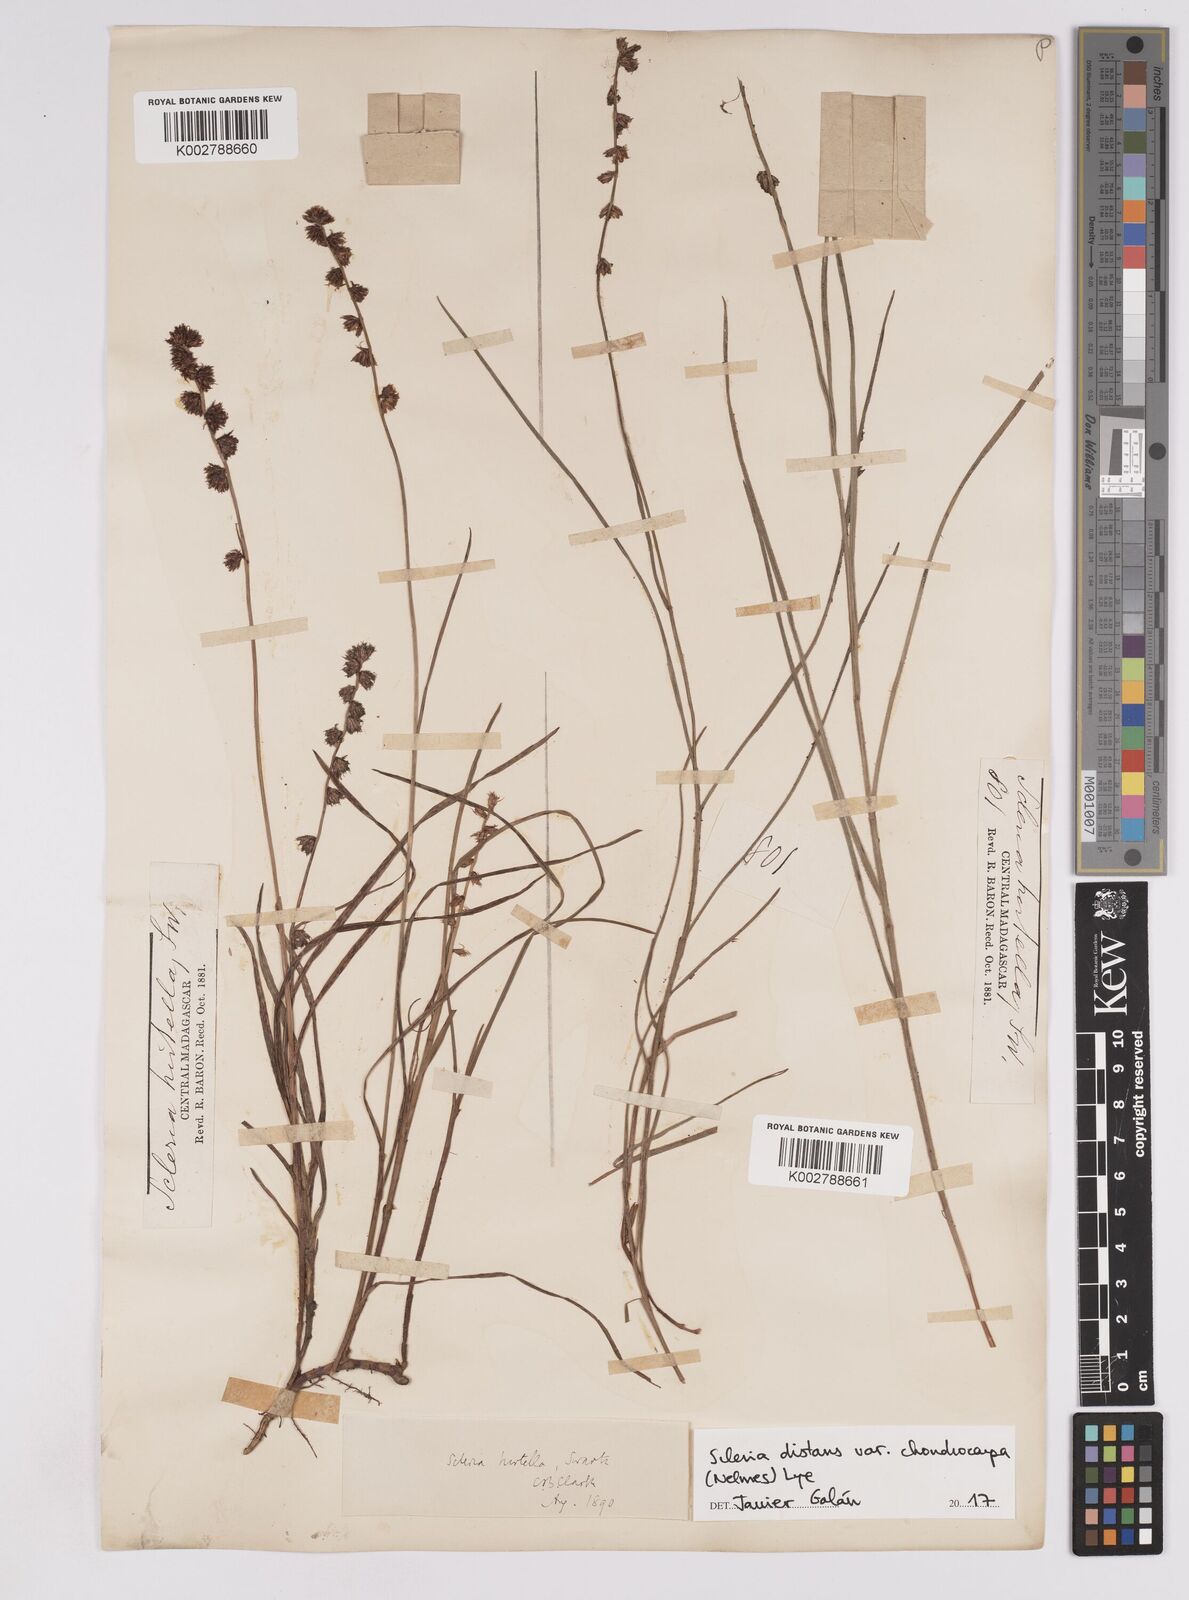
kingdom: Plantae
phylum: Tracheophyta
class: Liliopsida
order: Poales
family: Cyperaceae
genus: Scleria
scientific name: Scleria distans
